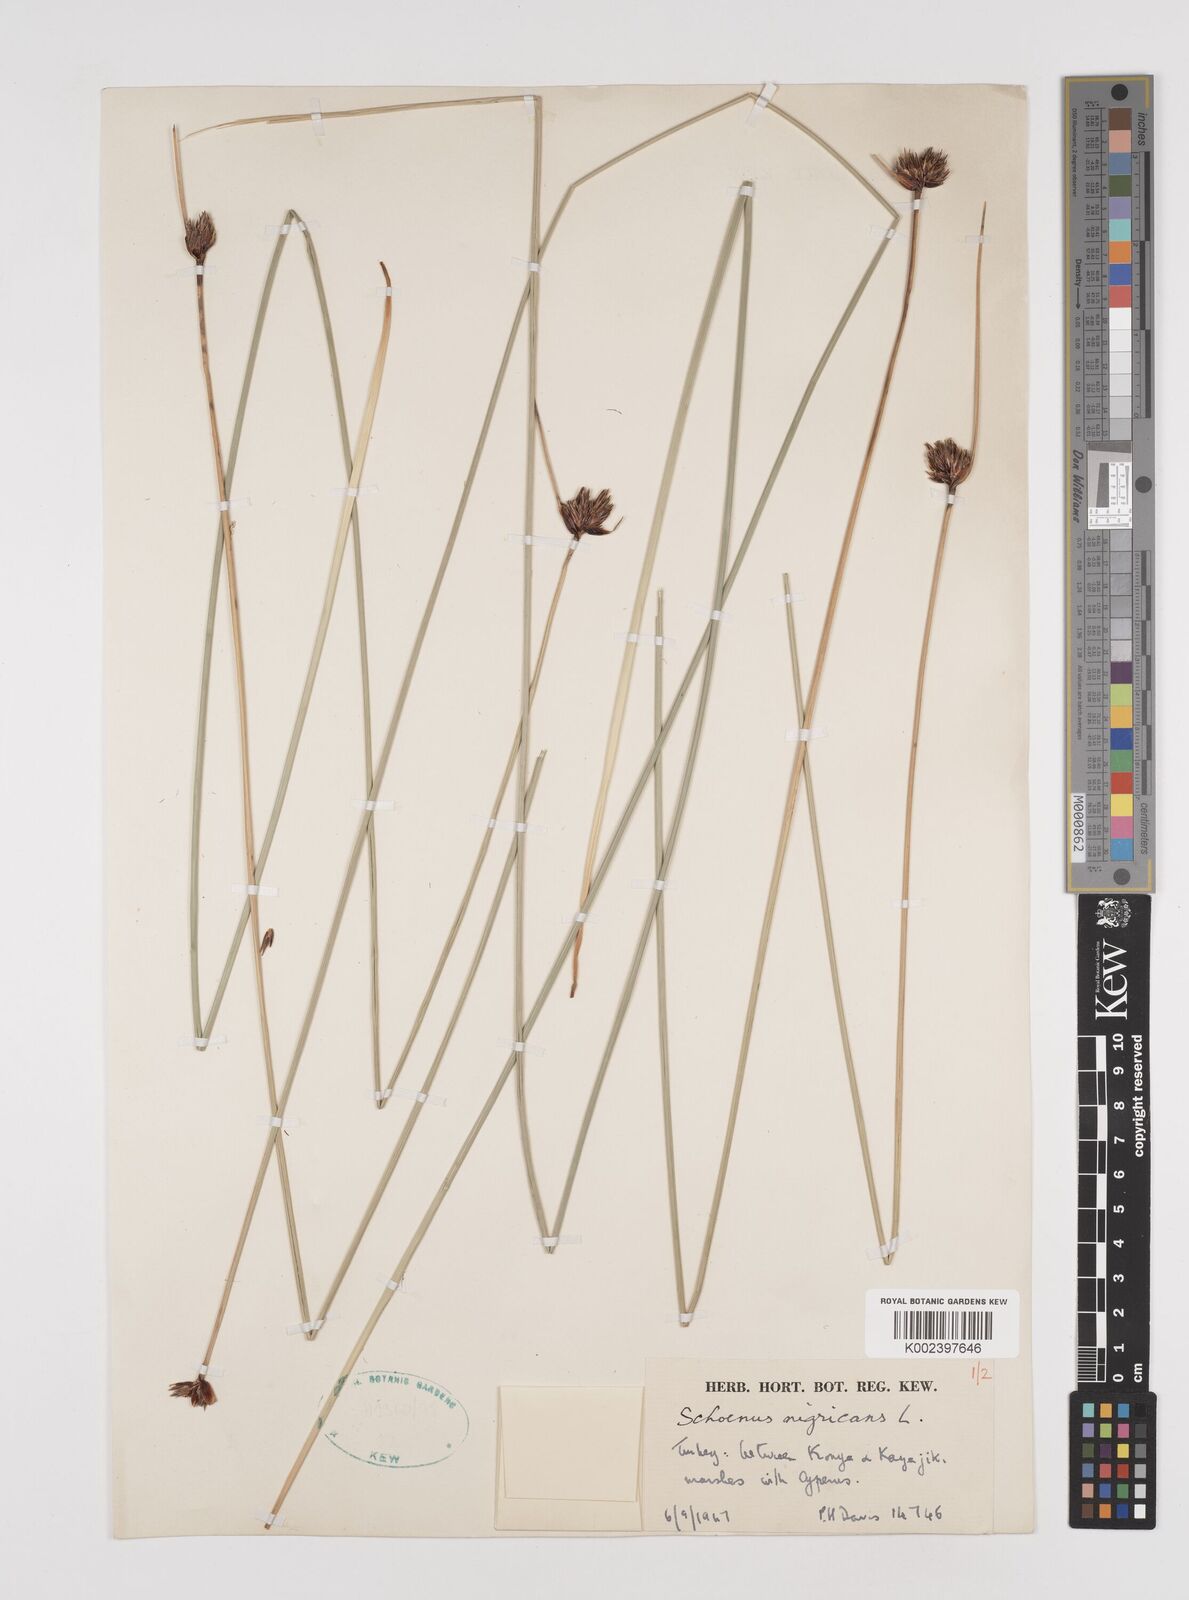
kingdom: Plantae
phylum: Tracheophyta
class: Liliopsida
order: Poales
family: Cyperaceae
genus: Schoenus
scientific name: Schoenus nigricans
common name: Black bog-rush
